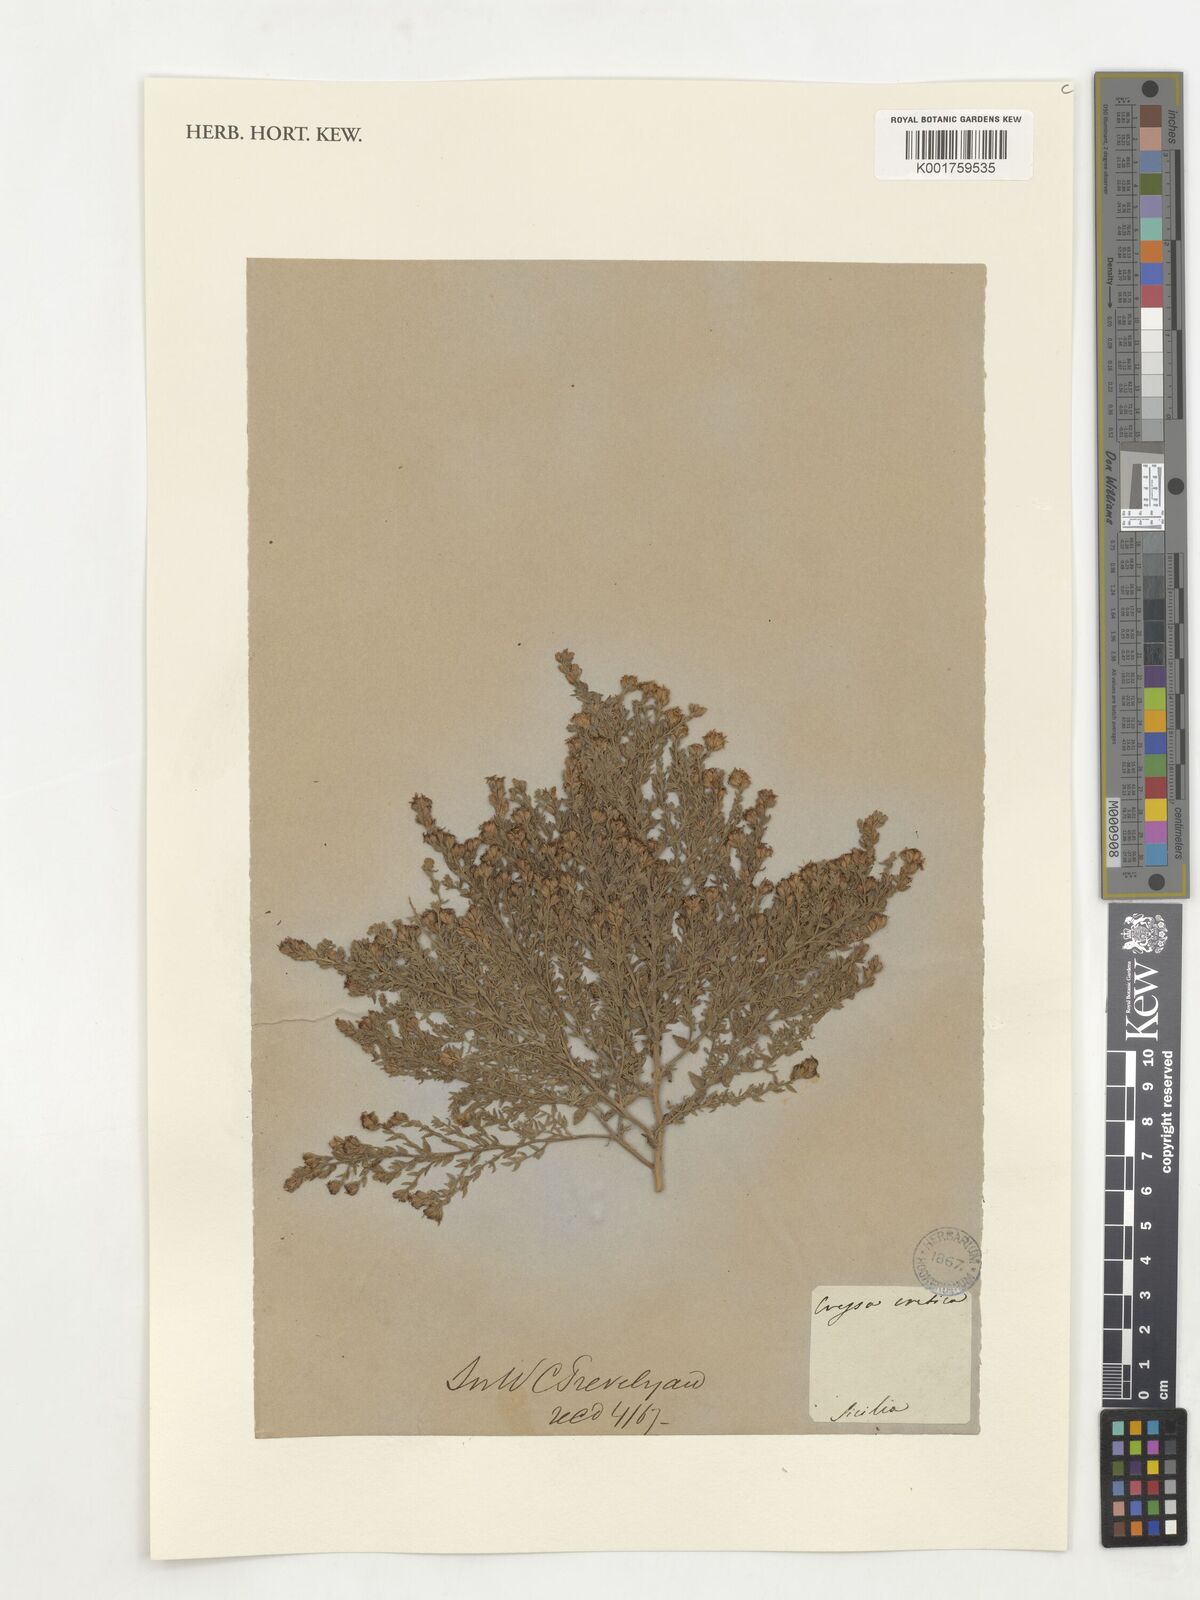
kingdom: Plantae
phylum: Tracheophyta
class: Magnoliopsida
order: Solanales
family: Convolvulaceae
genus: Cressa
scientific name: Cressa cretica
